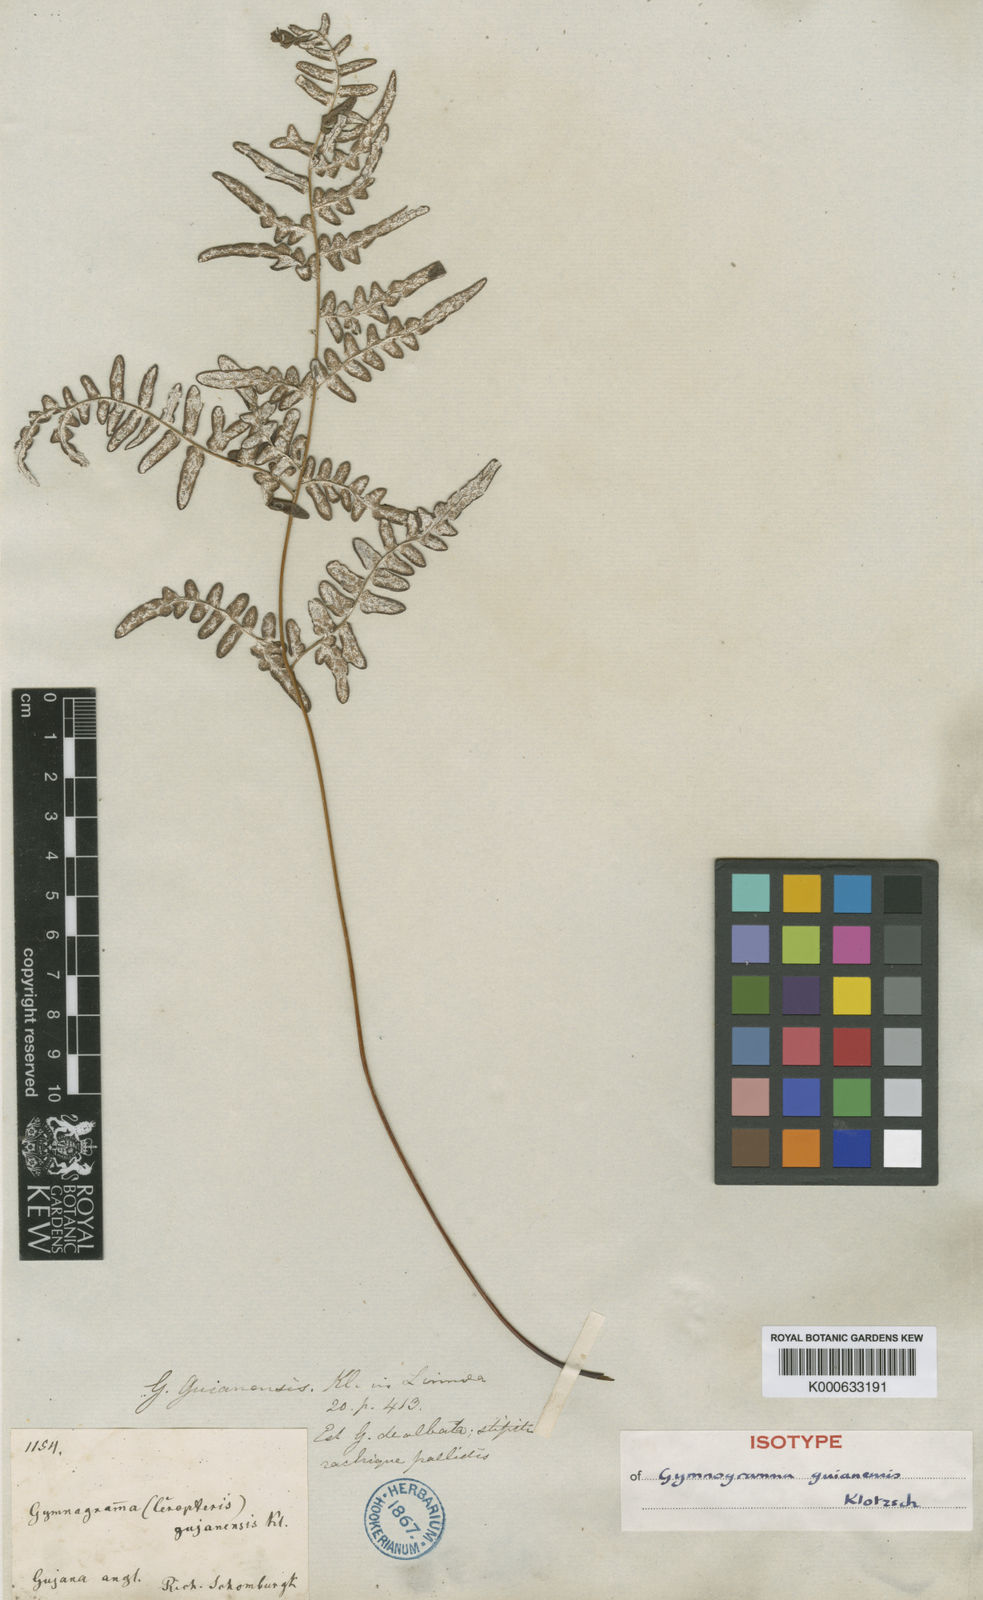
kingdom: Plantae
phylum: Tracheophyta
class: Polypodiopsida
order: Polypodiales
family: Pteridaceae
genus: Pityrogramma
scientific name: Pityrogramma chrysoconia
